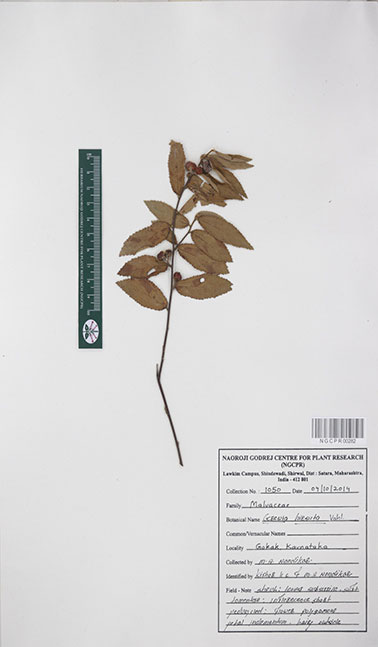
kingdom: Plantae
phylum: Tracheophyta
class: Magnoliopsida
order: Malvales
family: Malvaceae
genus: Grewia
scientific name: Grewia hirsuta
